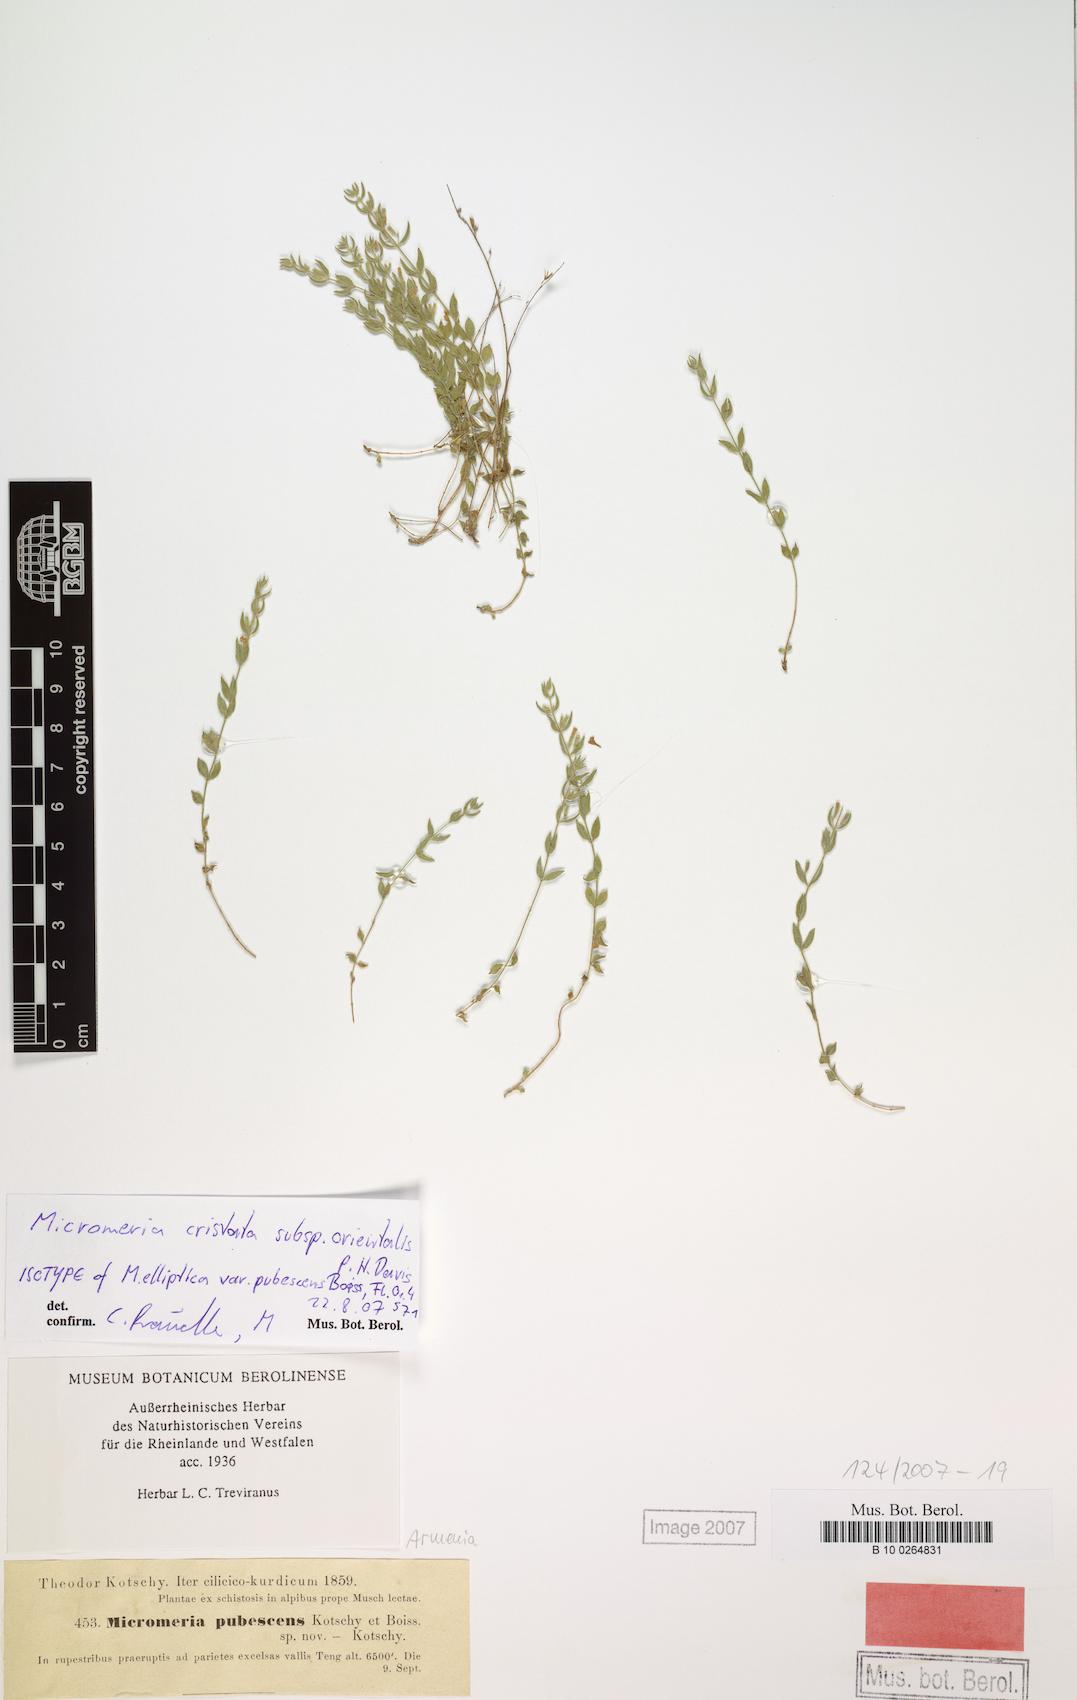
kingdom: Plantae
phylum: Tracheophyta
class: Magnoliopsida
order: Lamiales
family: Lamiaceae
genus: Micromeria
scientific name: Micromeria cristata
